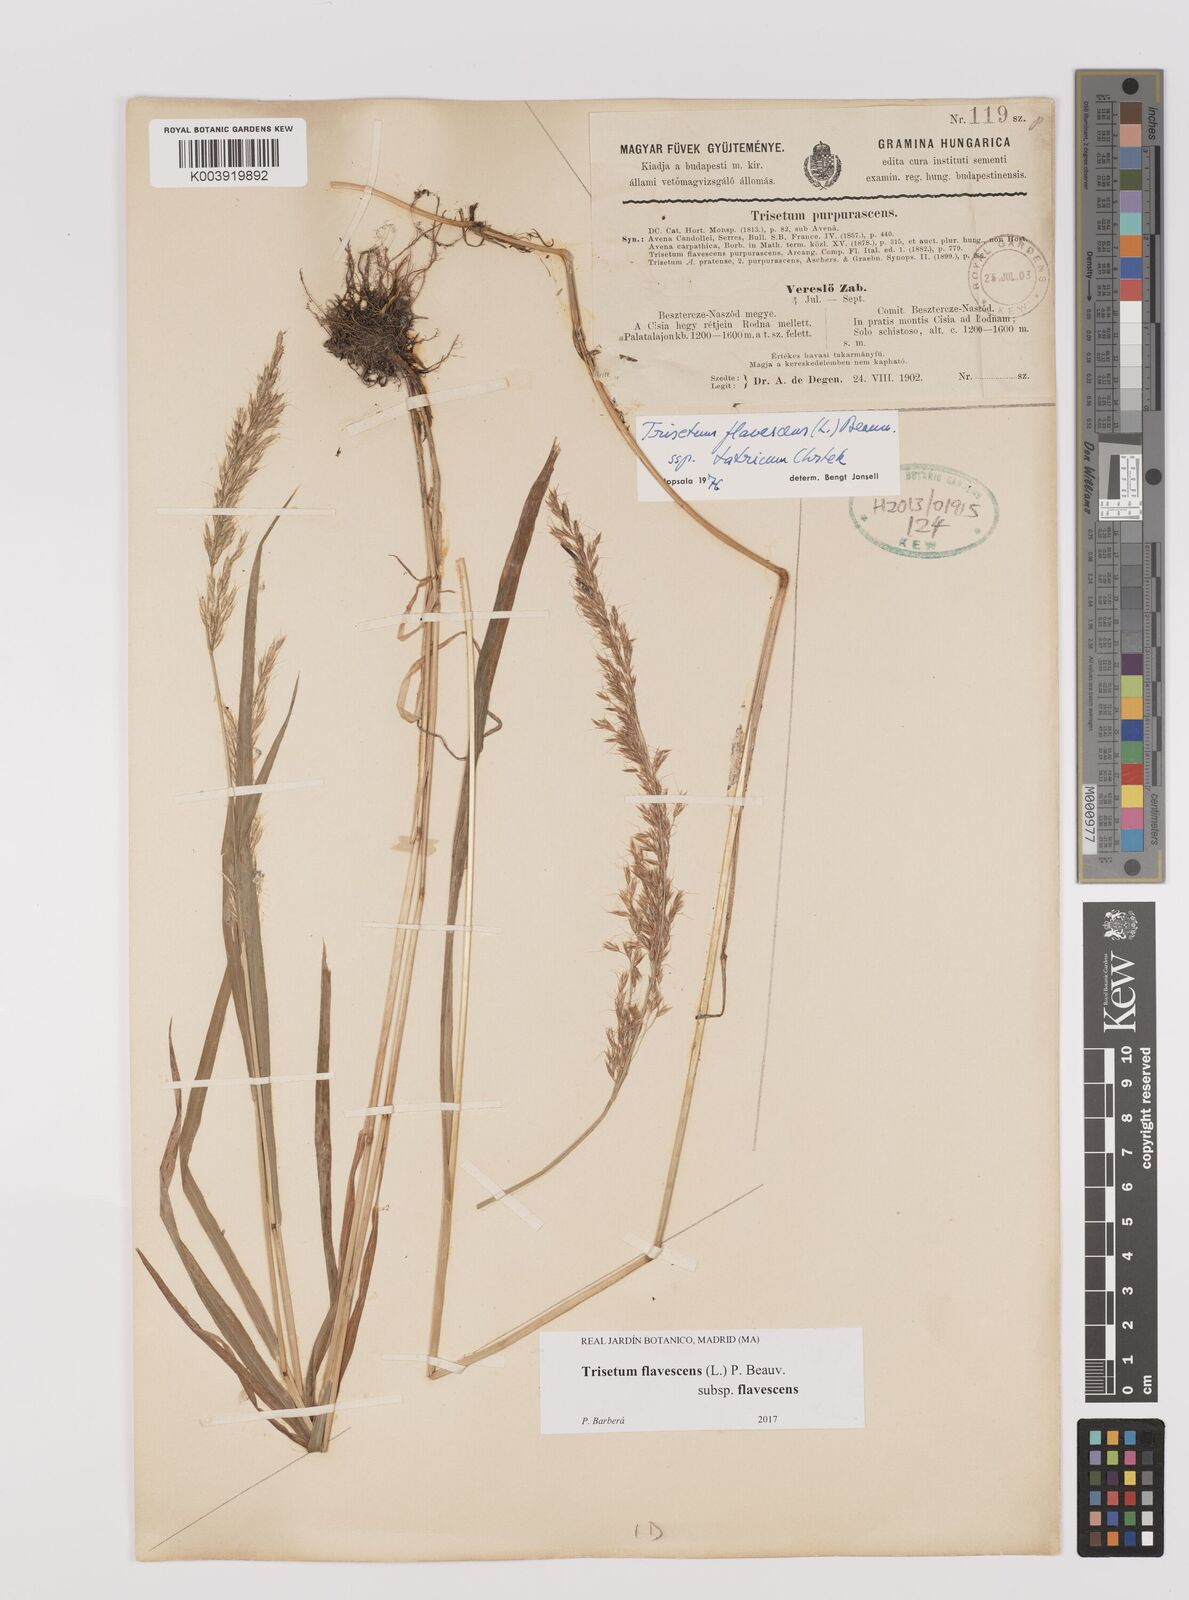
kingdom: Plantae
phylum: Tracheophyta
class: Liliopsida
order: Poales
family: Poaceae
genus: Trisetum
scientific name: Trisetum flavescens
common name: Yellow oat-grass
